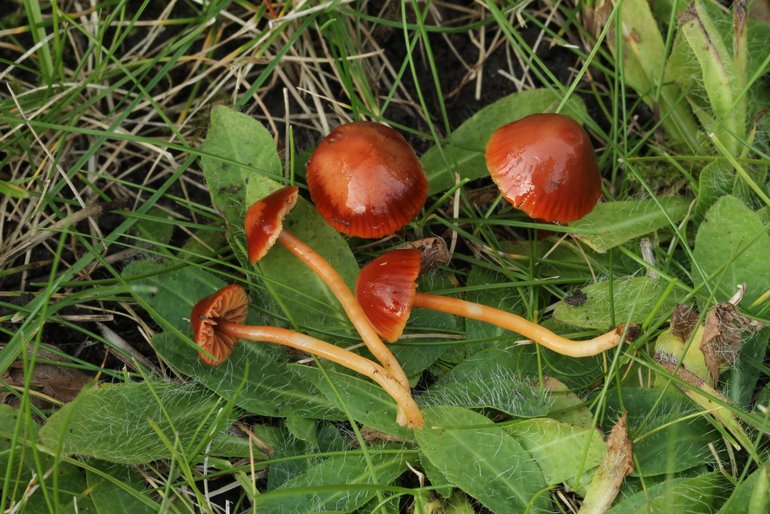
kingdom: Fungi
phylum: Basidiomycota
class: Agaricomycetes
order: Agaricales
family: Hygrophoraceae
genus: Gliophorus
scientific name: Gliophorus europerplexus
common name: Butterscotch waxcap
